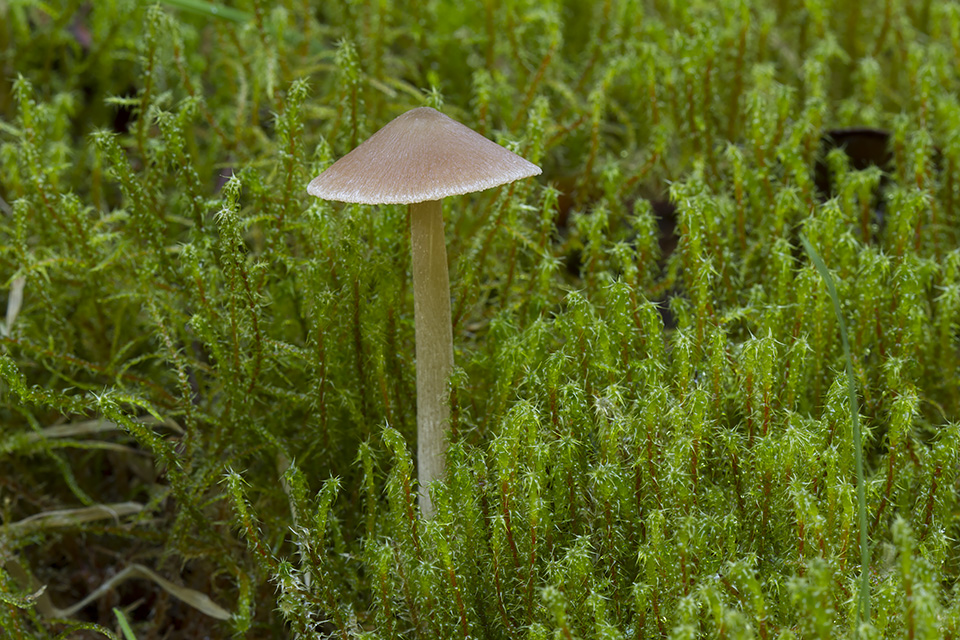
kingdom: Fungi
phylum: Basidiomycota
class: Agaricomycetes
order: Agaricales
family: Entolomataceae
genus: Entoloma
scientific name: Entoloma cuneatum
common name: dunstokket rødblad
